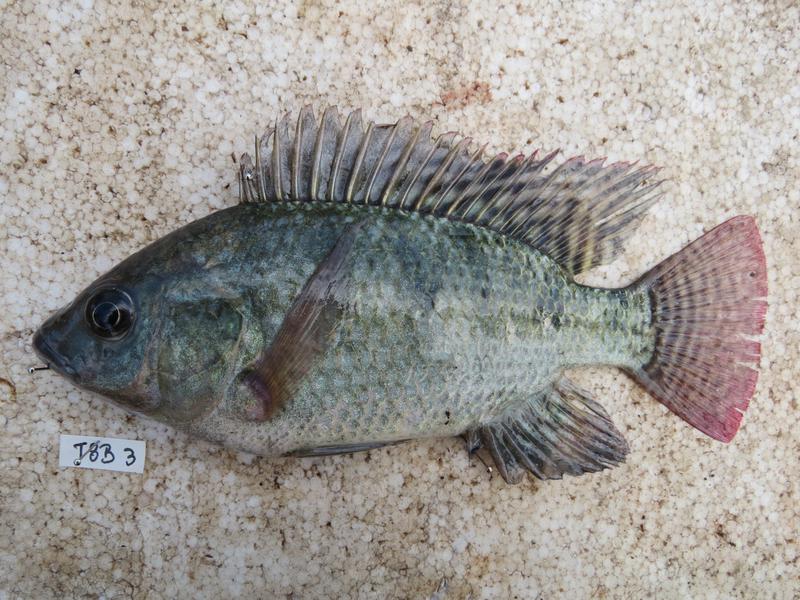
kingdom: Animalia
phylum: Chordata
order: Perciformes
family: Cichlidae
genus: Oreochromis
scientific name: Oreochromis niloticus
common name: Nile tilapia
